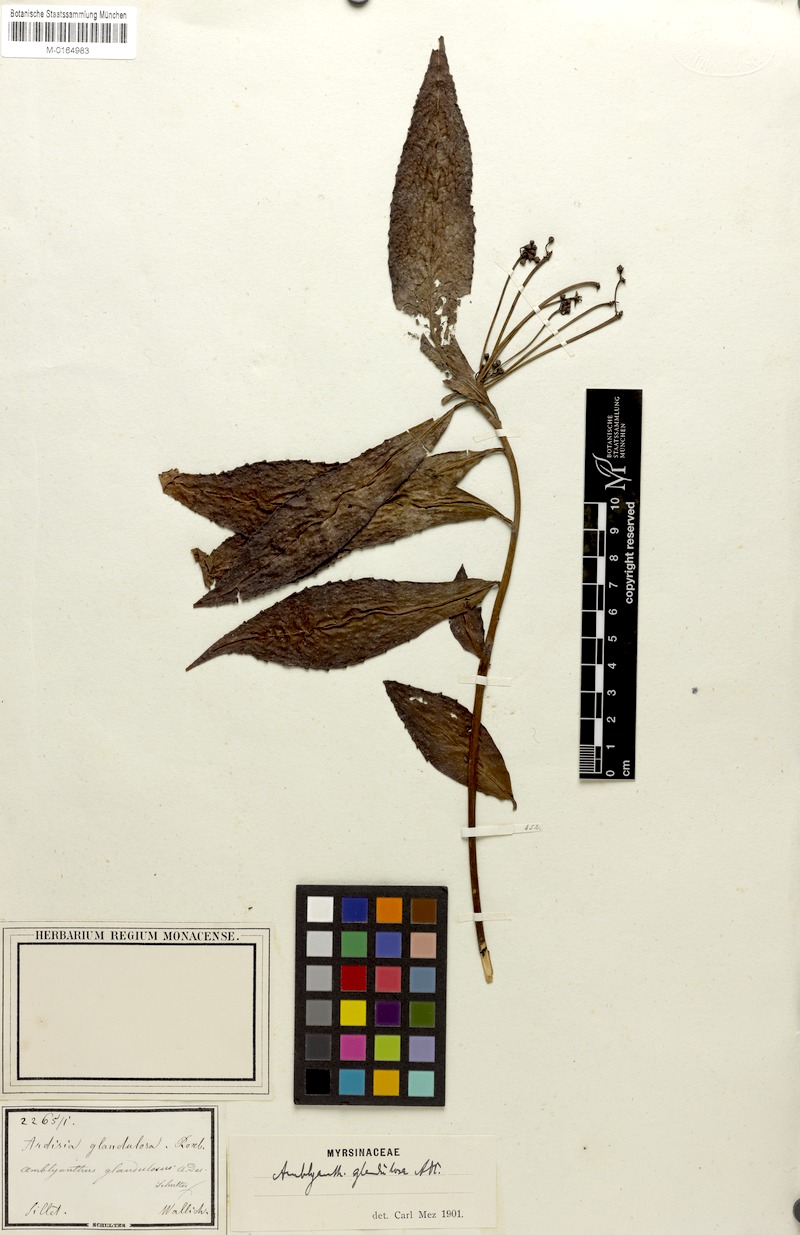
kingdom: Plantae
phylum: Tracheophyta
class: Magnoliopsida
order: Ericales
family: Primulaceae
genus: Amblyanthus
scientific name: Amblyanthus glandulosus
